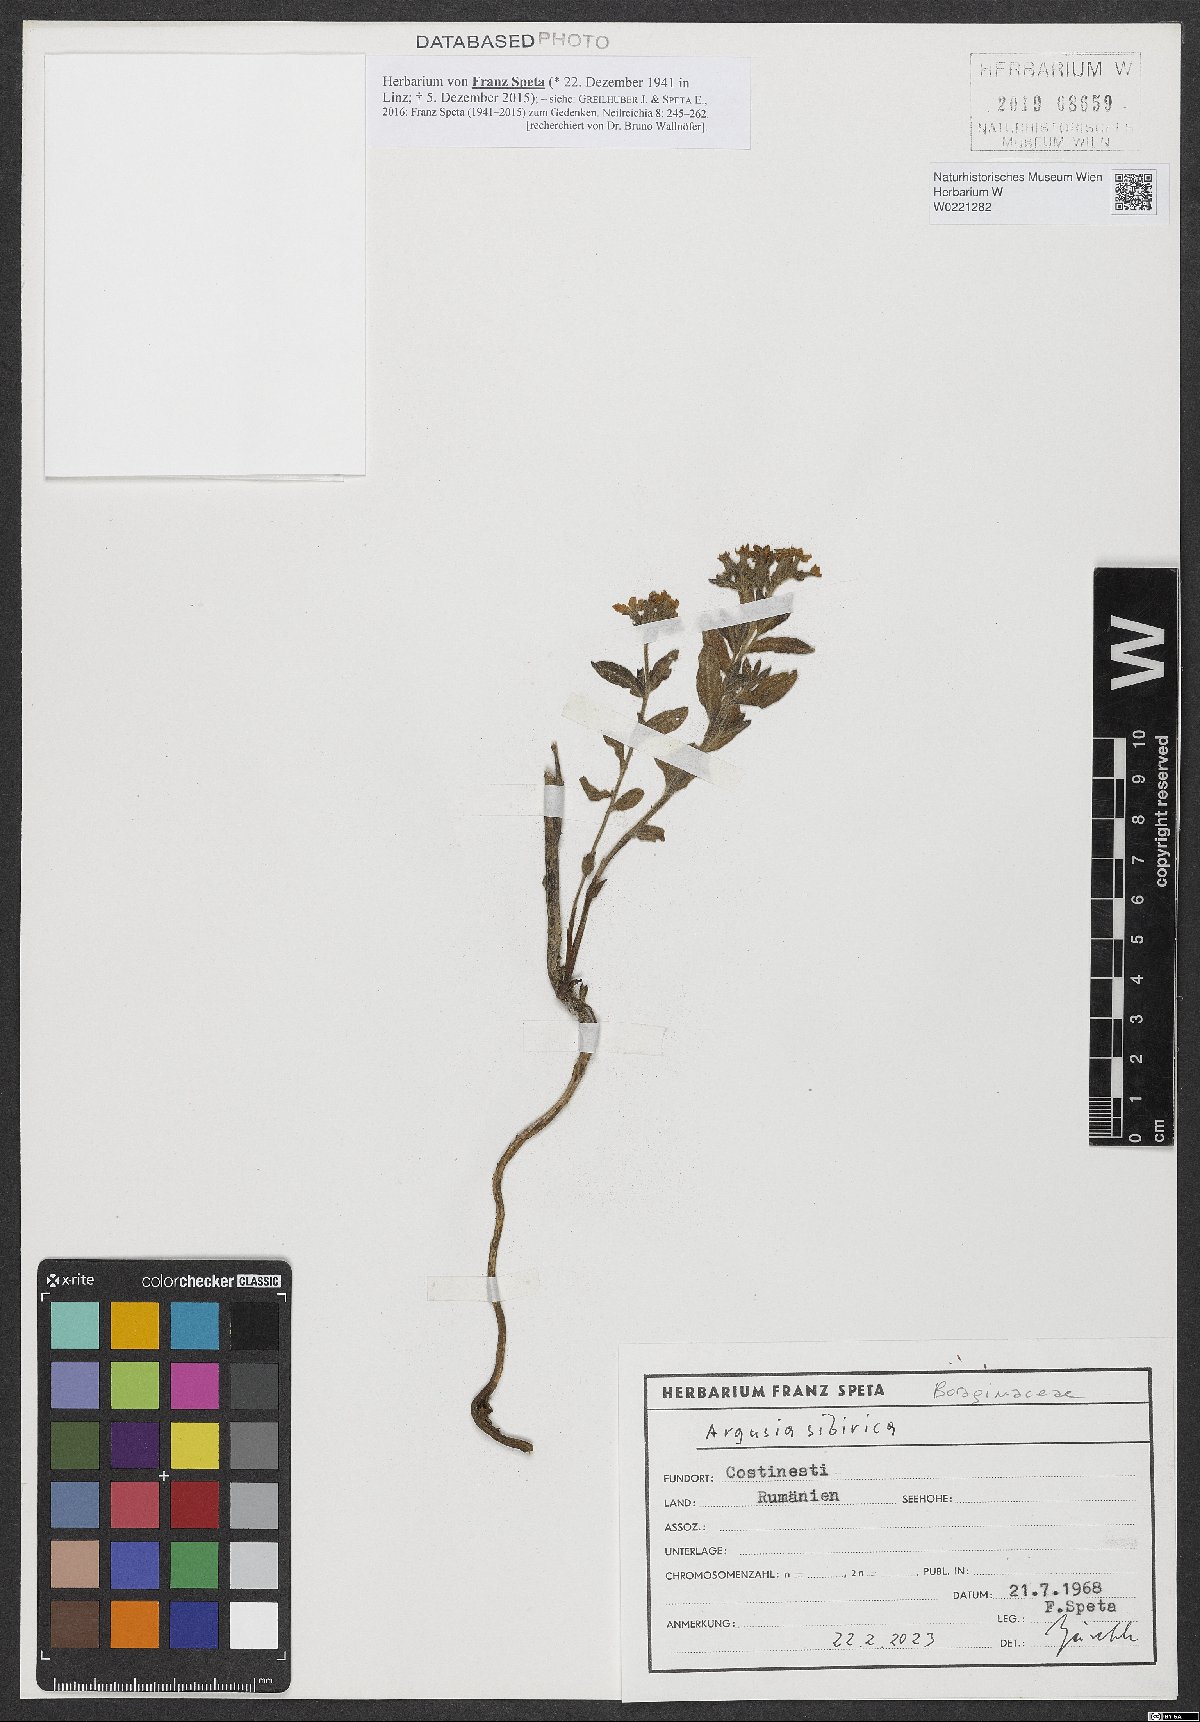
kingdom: Plantae
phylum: Tracheophyta
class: Magnoliopsida
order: Boraginales
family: Heliotropiaceae
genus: Tournefortia
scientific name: Tournefortia sibirica
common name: Siberian sea rosemary
